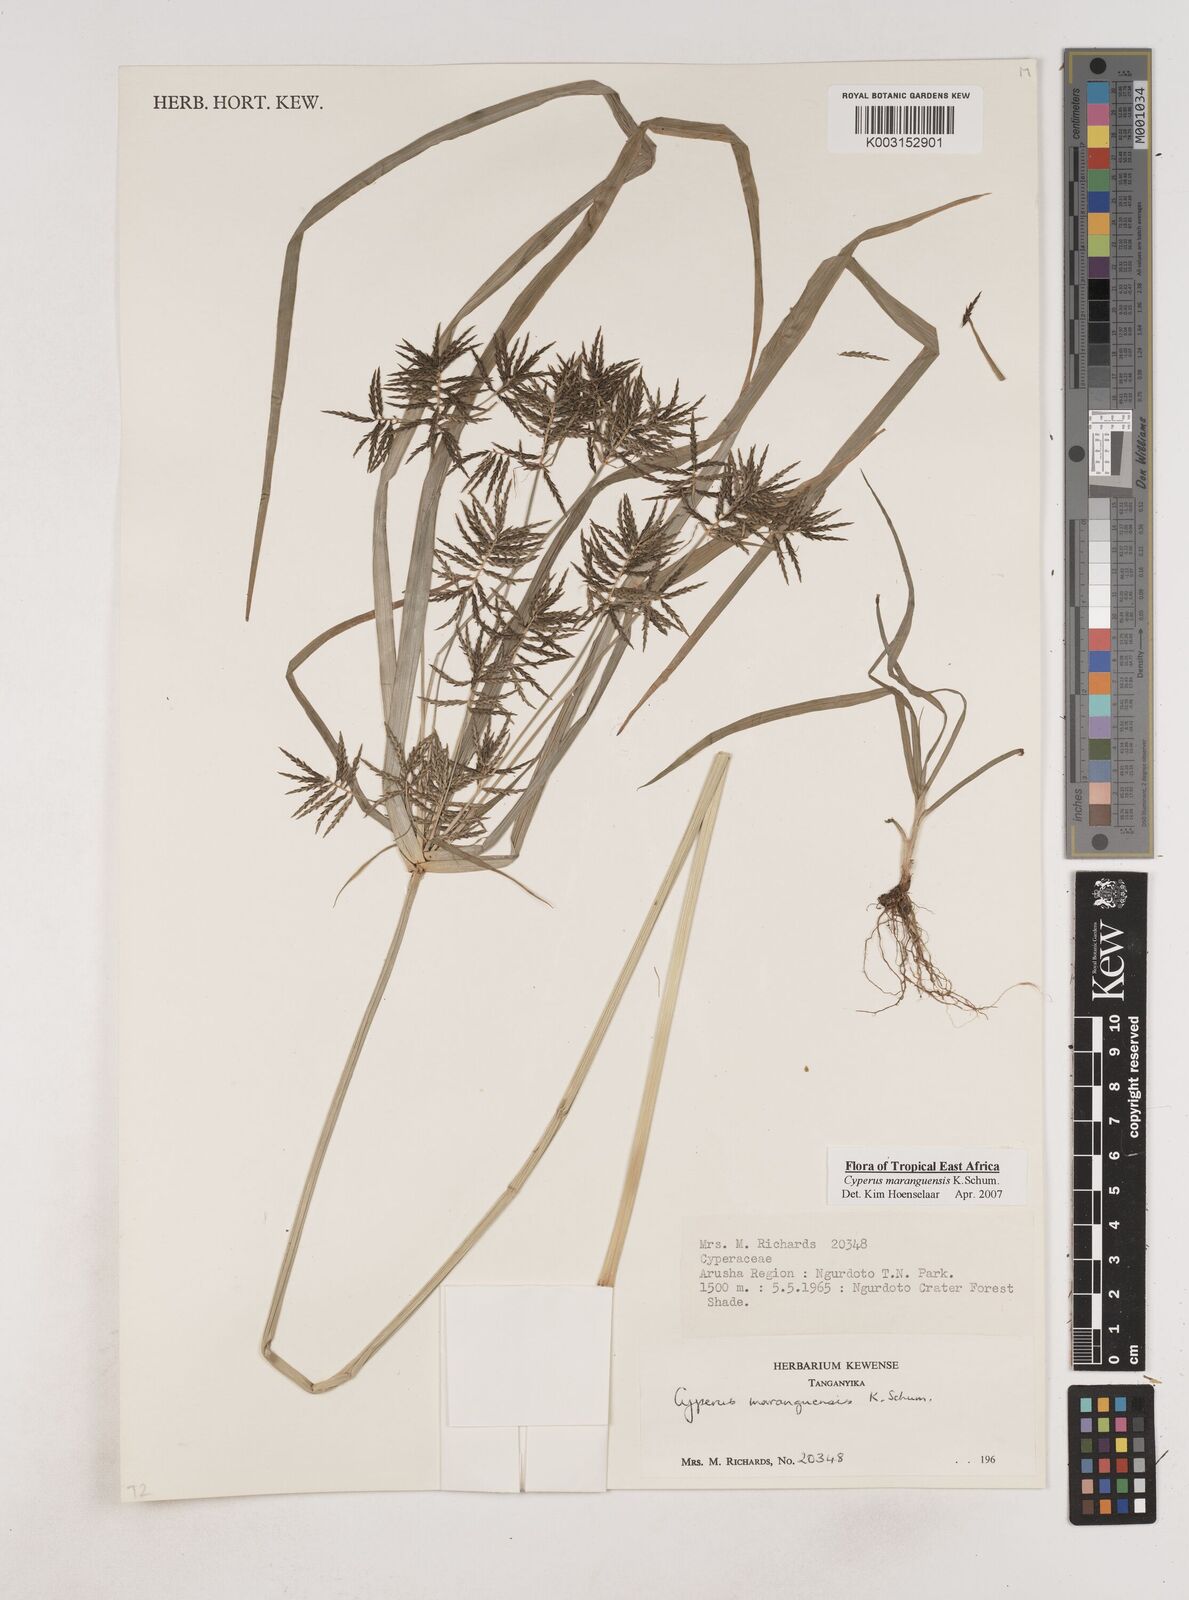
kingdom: Plantae
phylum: Tracheophyta
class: Liliopsida
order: Poales
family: Cyperaceae
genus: Cyperus
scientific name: Cyperus maranguensis
